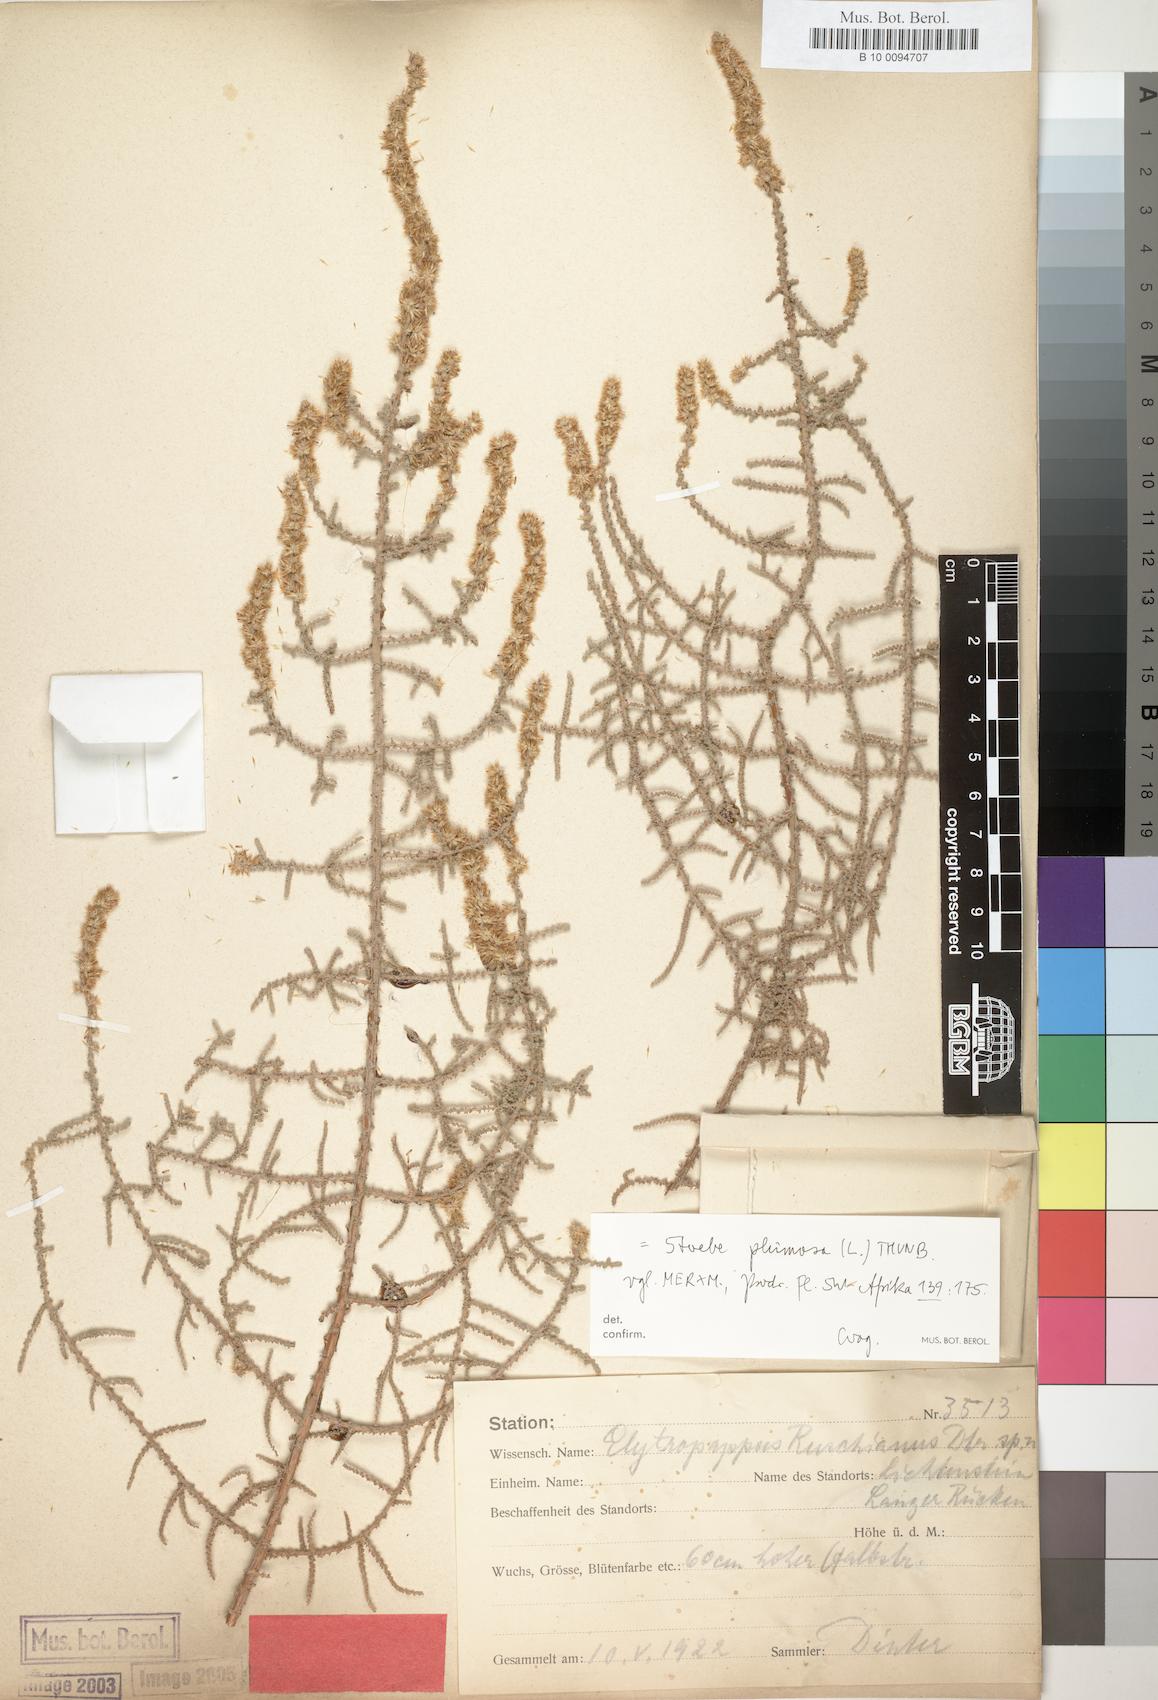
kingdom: Plantae
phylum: Tracheophyta
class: Magnoliopsida
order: Asterales
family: Asteraceae
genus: Seriphium
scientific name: Seriphium plumosum
